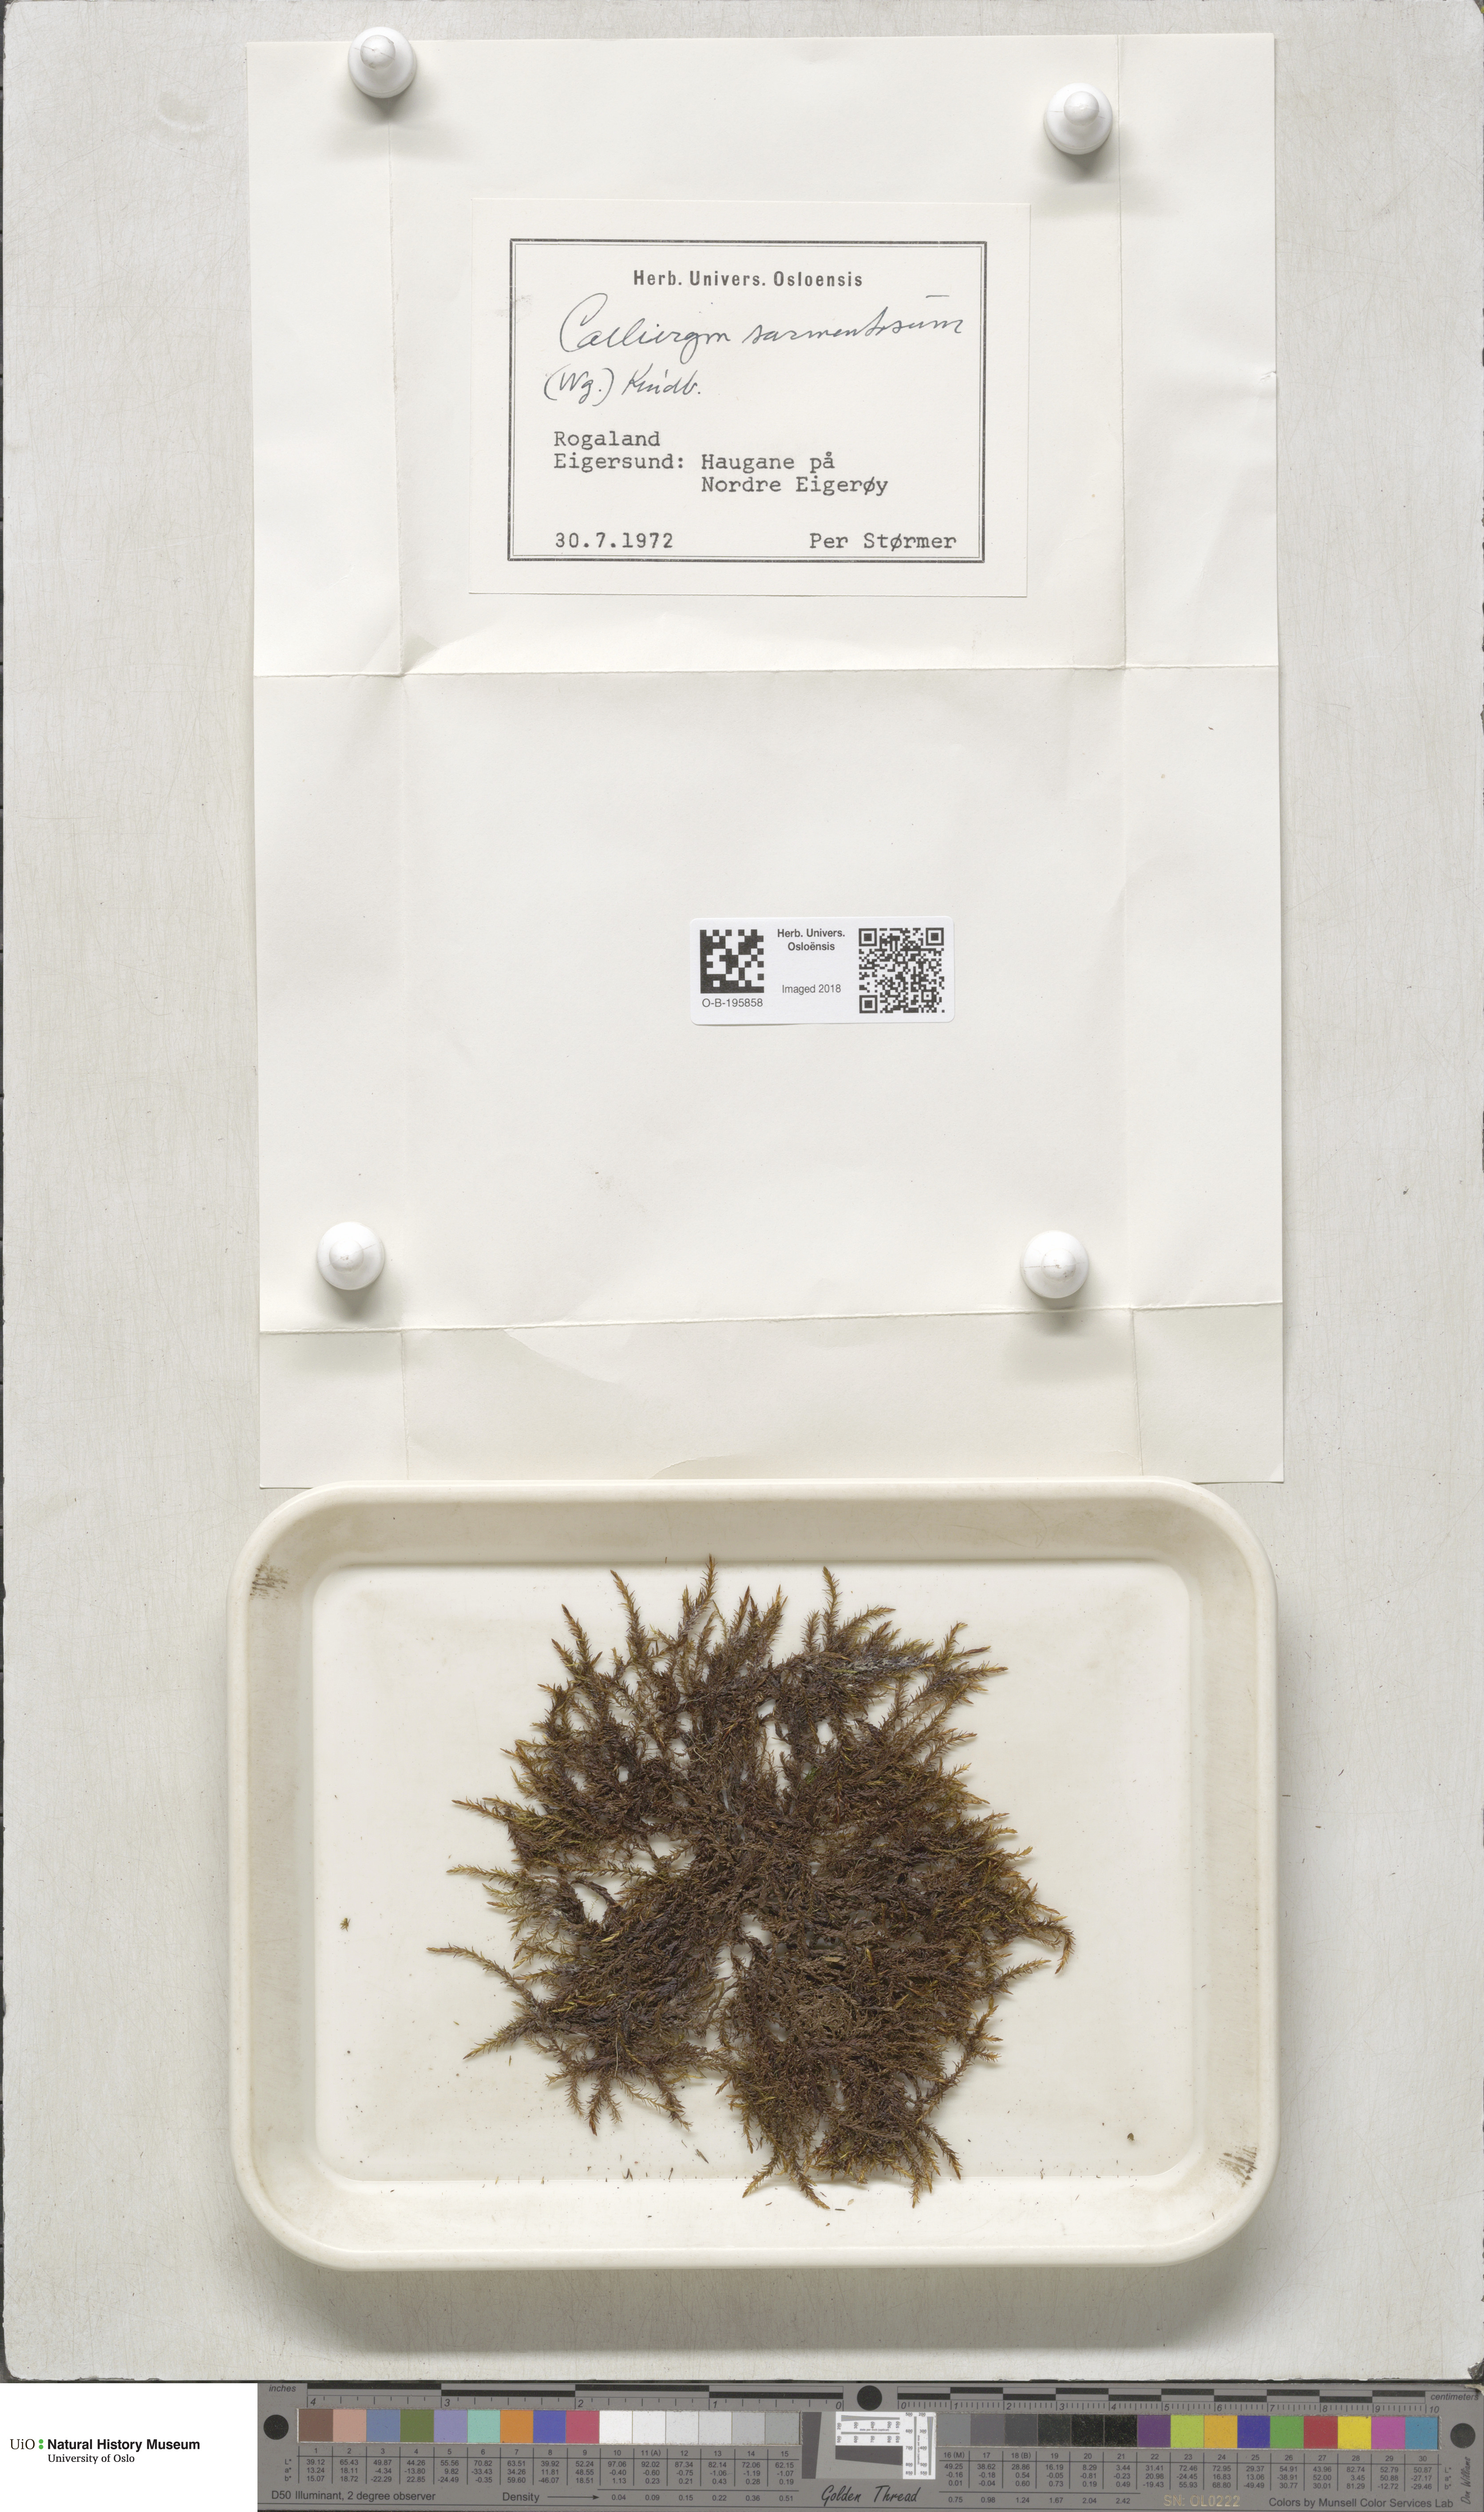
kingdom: Plantae
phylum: Bryophyta
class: Bryopsida
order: Hypnales
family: Calliergonaceae
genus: Warnstorfia
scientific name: Warnstorfia pseudostraminea
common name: Spring hook moss
